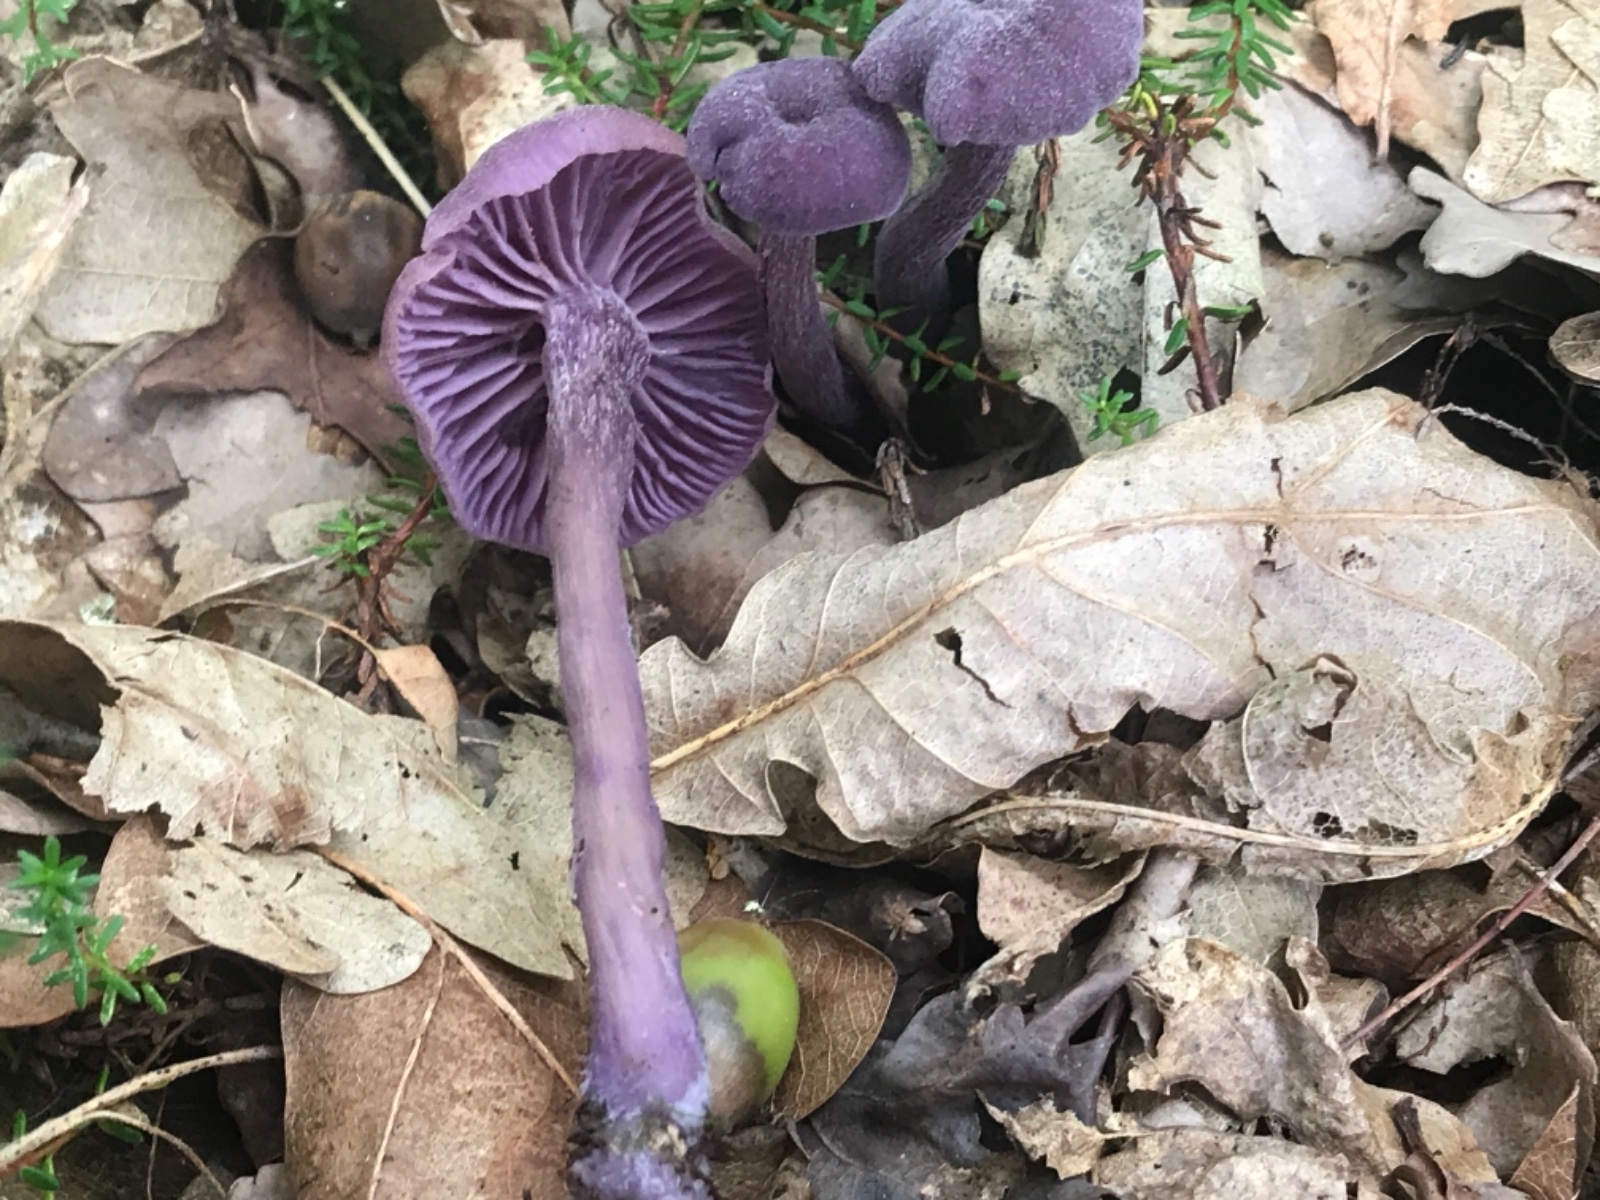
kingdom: Fungi
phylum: Basidiomycota
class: Agaricomycetes
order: Agaricales
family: Hydnangiaceae
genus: Laccaria
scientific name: Laccaria amethystina
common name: violet ametysthat
